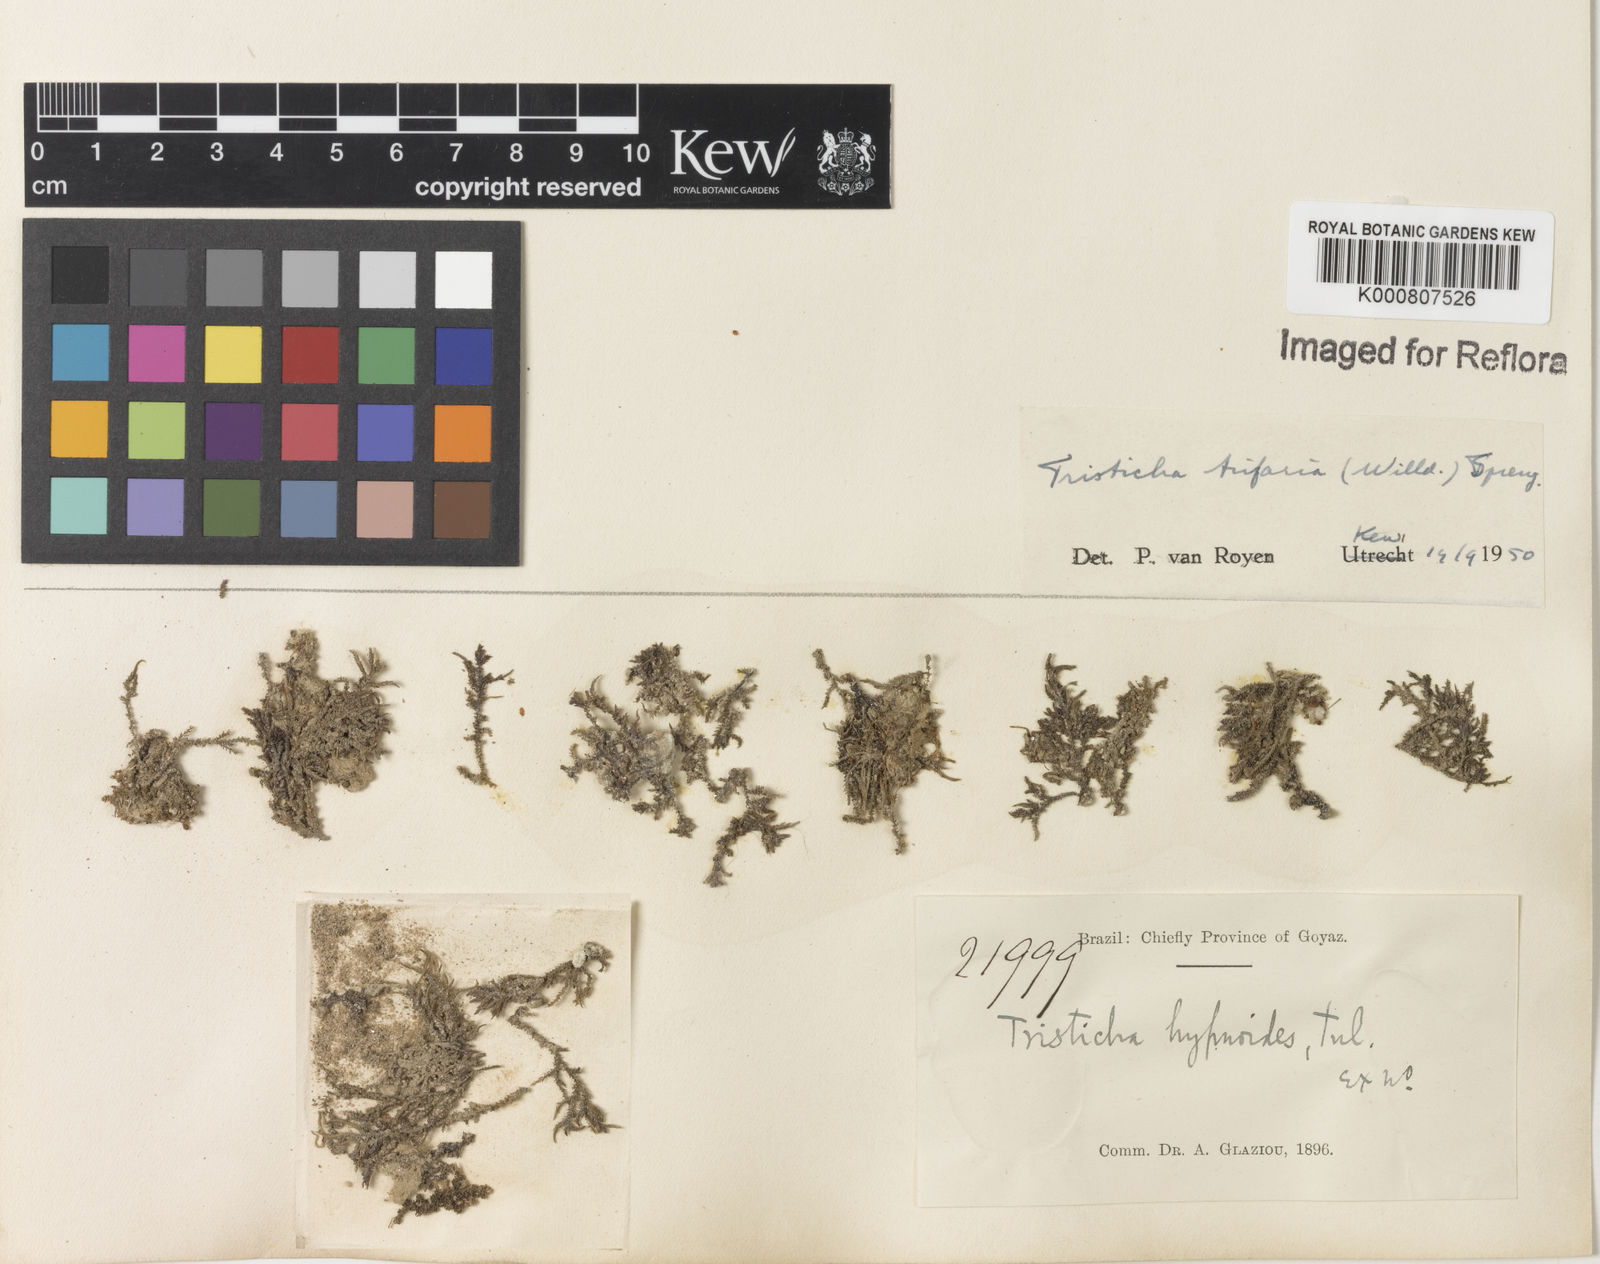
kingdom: Plantae
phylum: Tracheophyta
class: Magnoliopsida
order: Malpighiales
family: Podostemaceae
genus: Tristicha
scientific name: Tristicha trifaria
